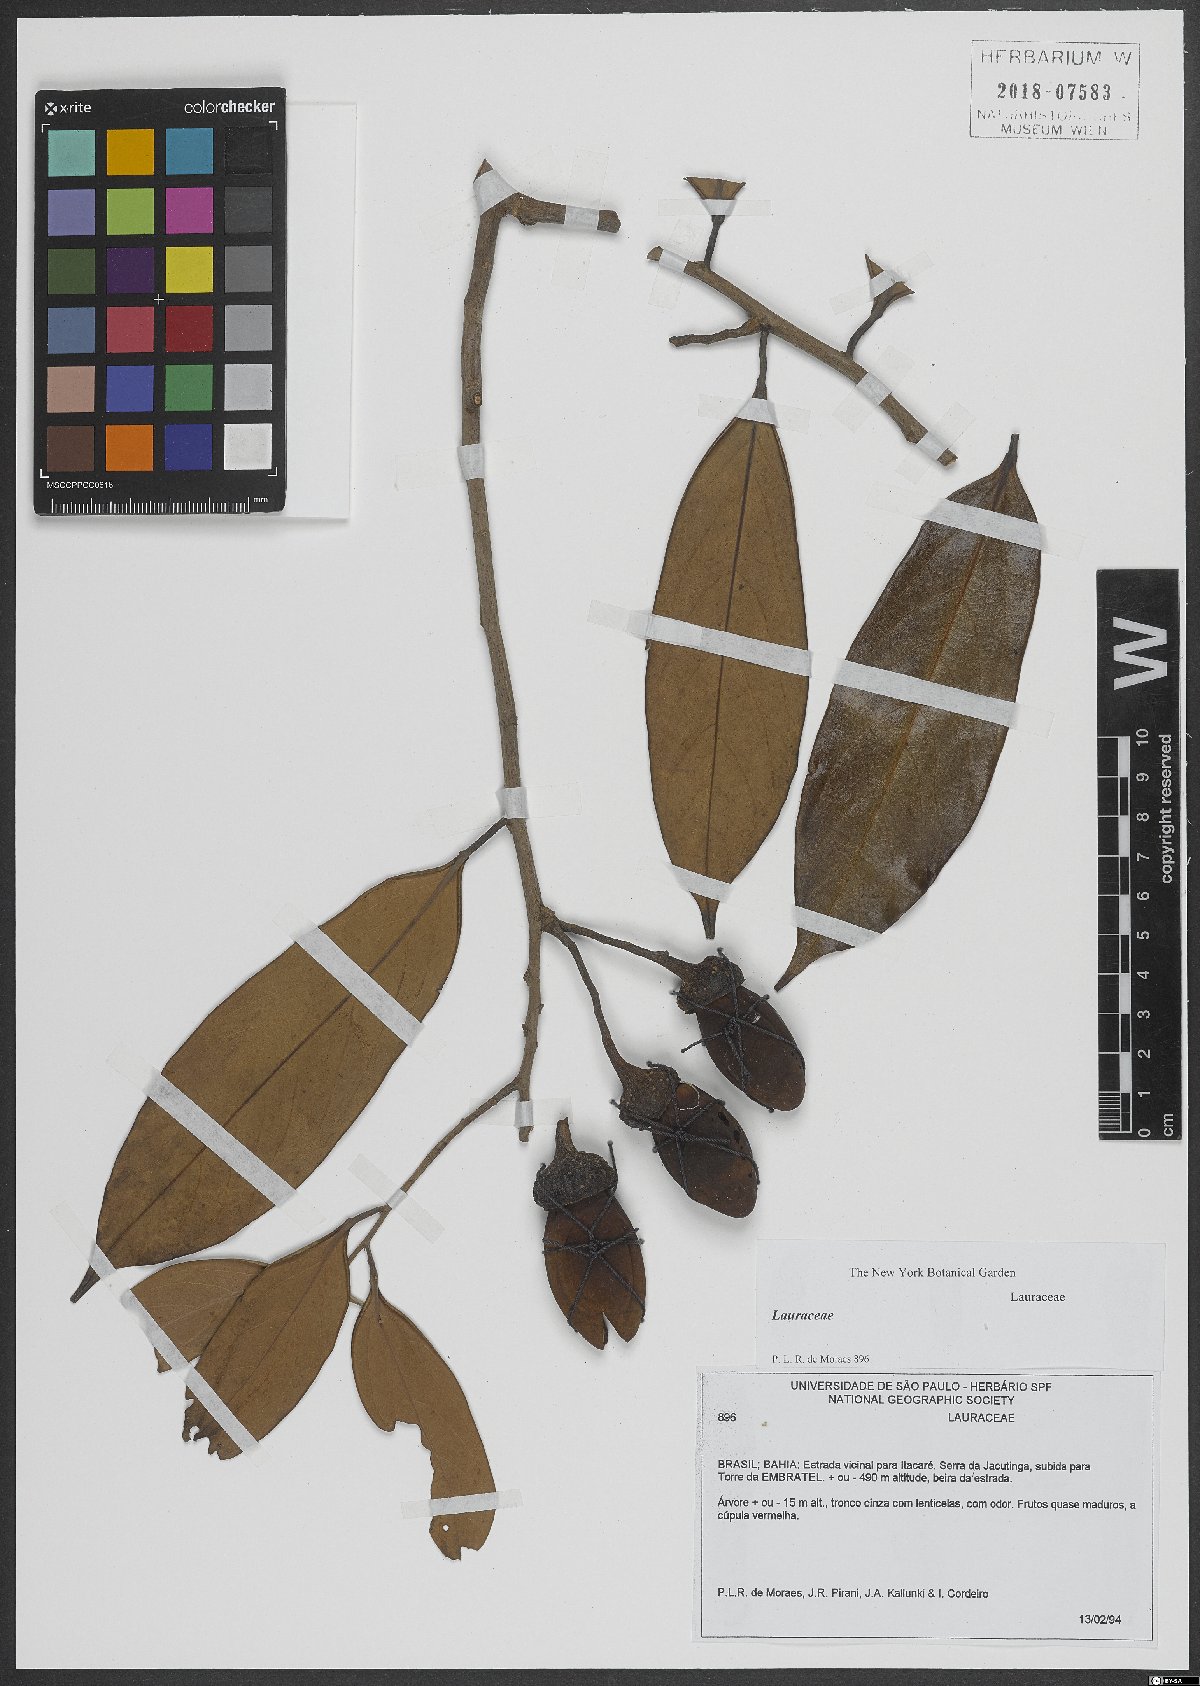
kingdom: Plantae
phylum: Tracheophyta
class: Magnoliopsida
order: Laurales
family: Lauraceae
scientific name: Lauraceae
